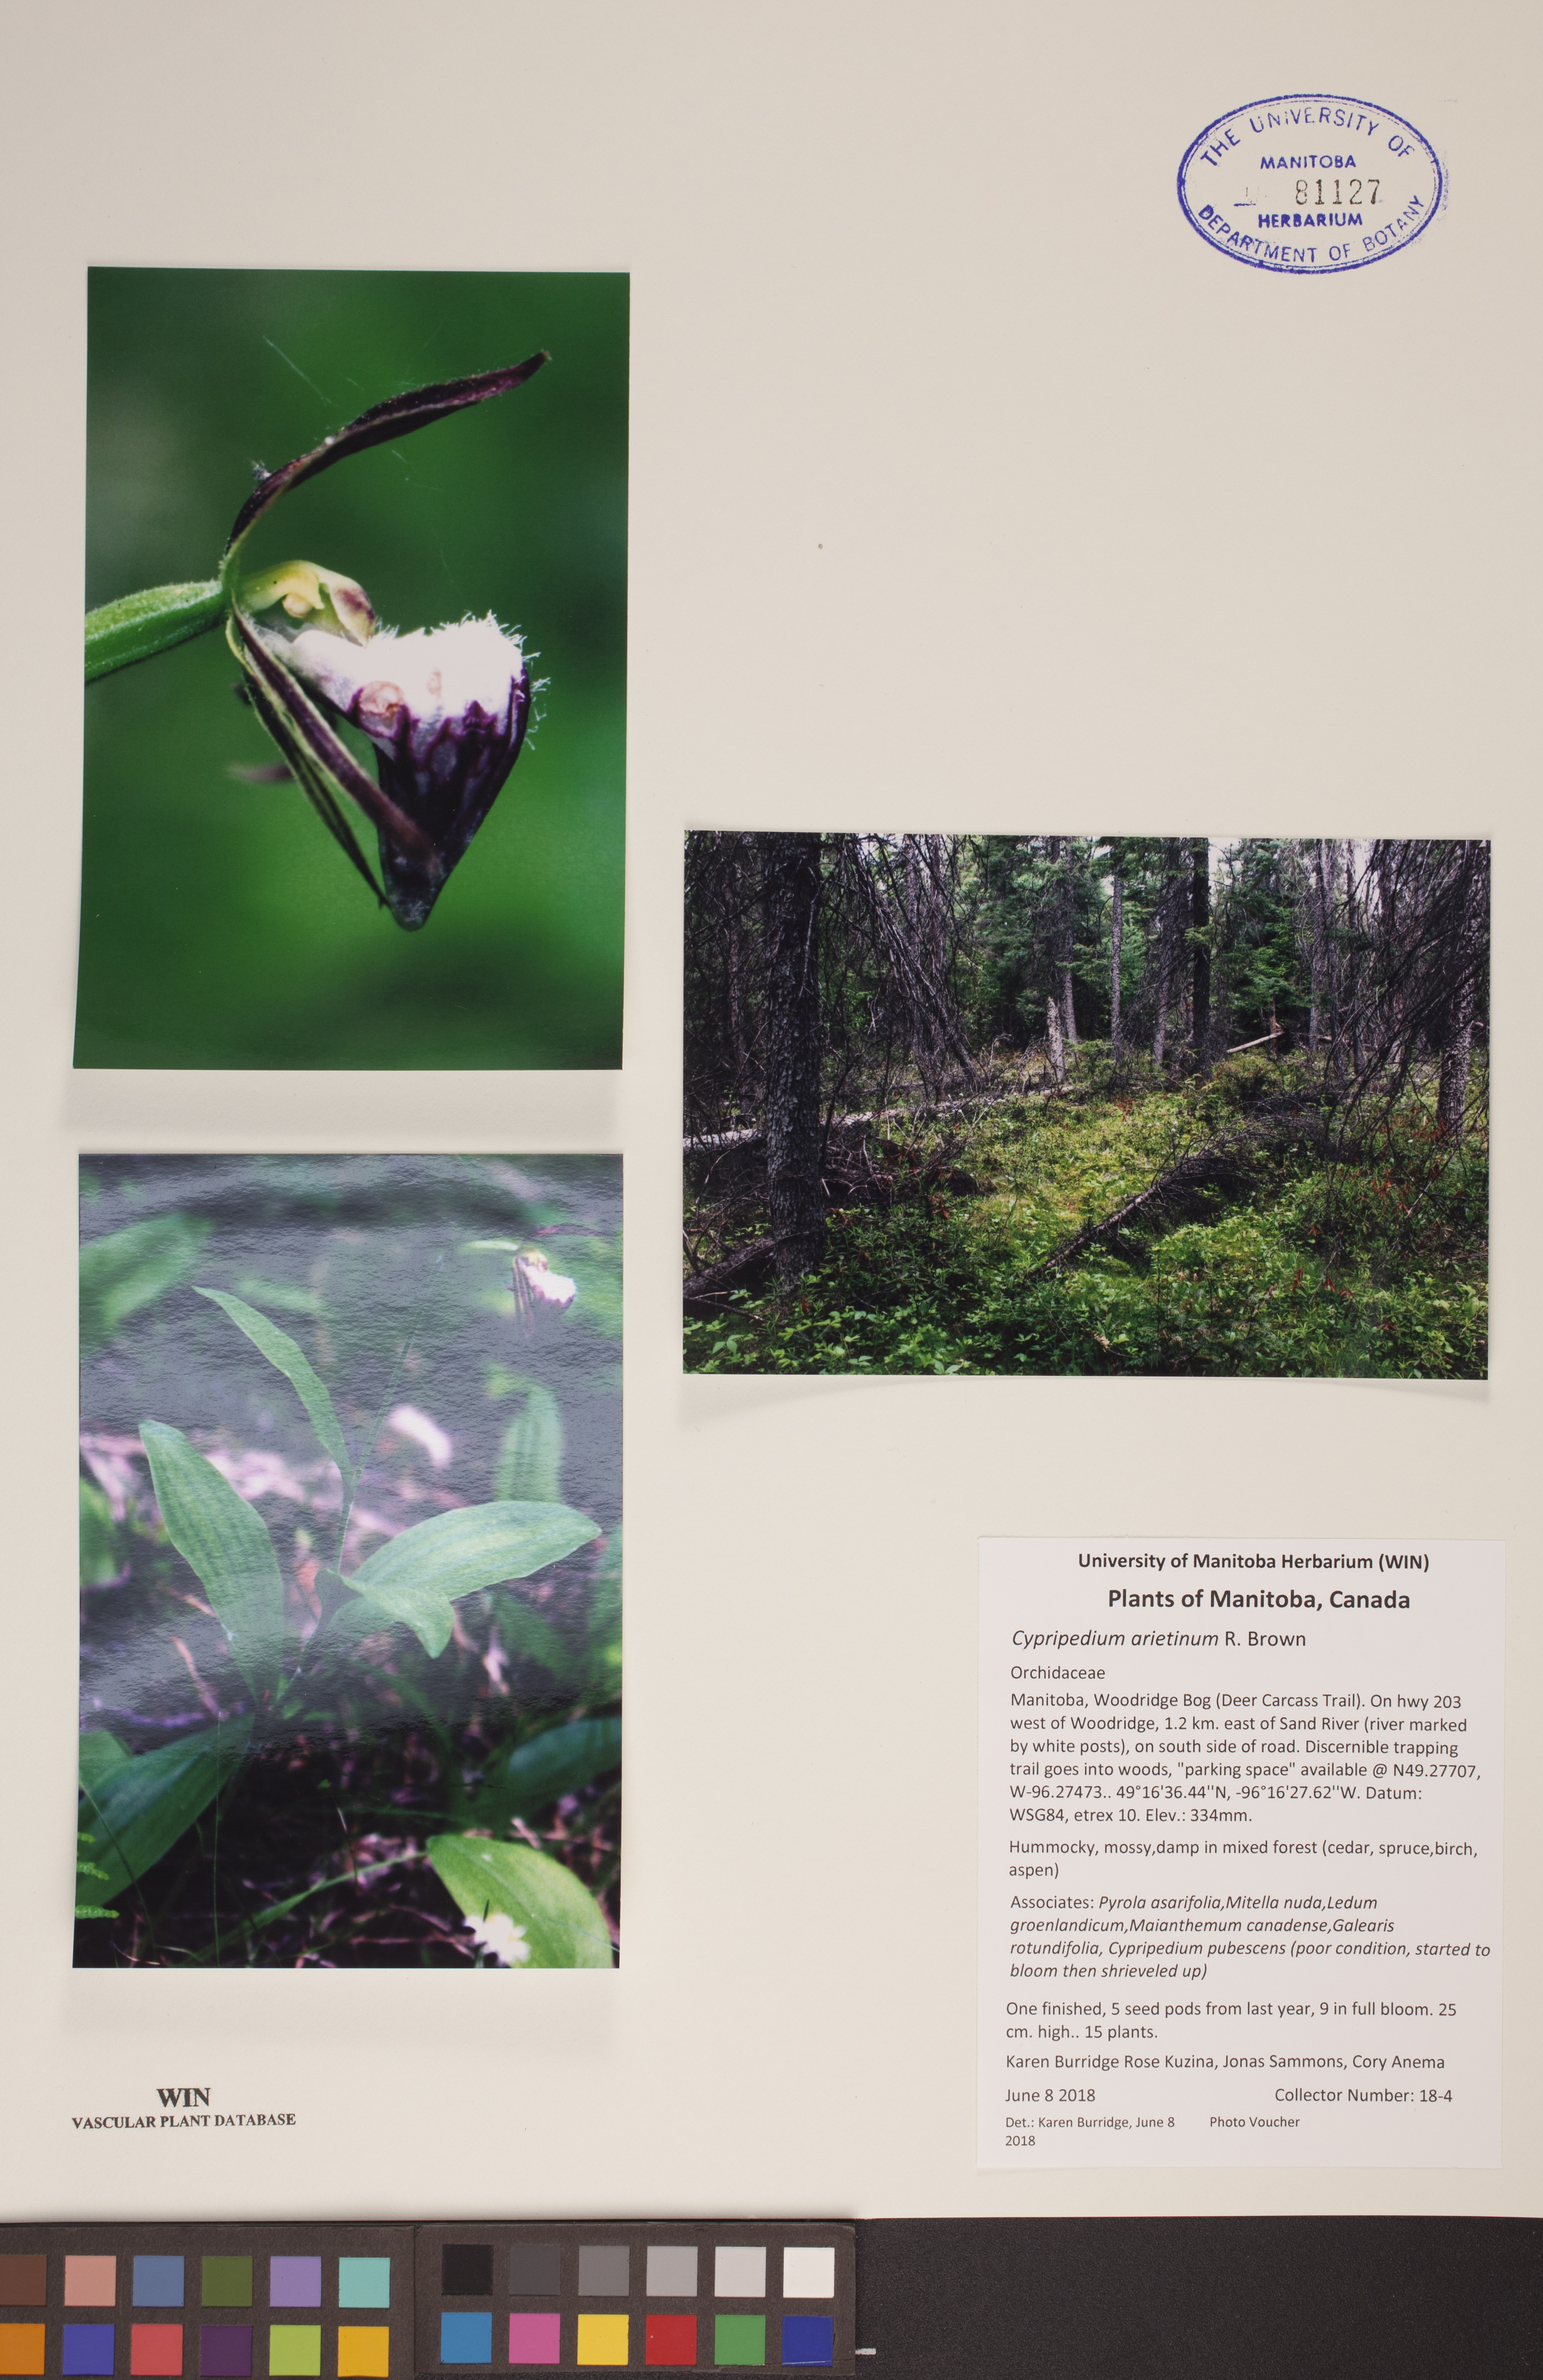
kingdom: Plantae
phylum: Tracheophyta
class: Liliopsida
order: Asparagales
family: Orchidaceae
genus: Cypripedium
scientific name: Cypripedium arietinum
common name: Ram's-head
